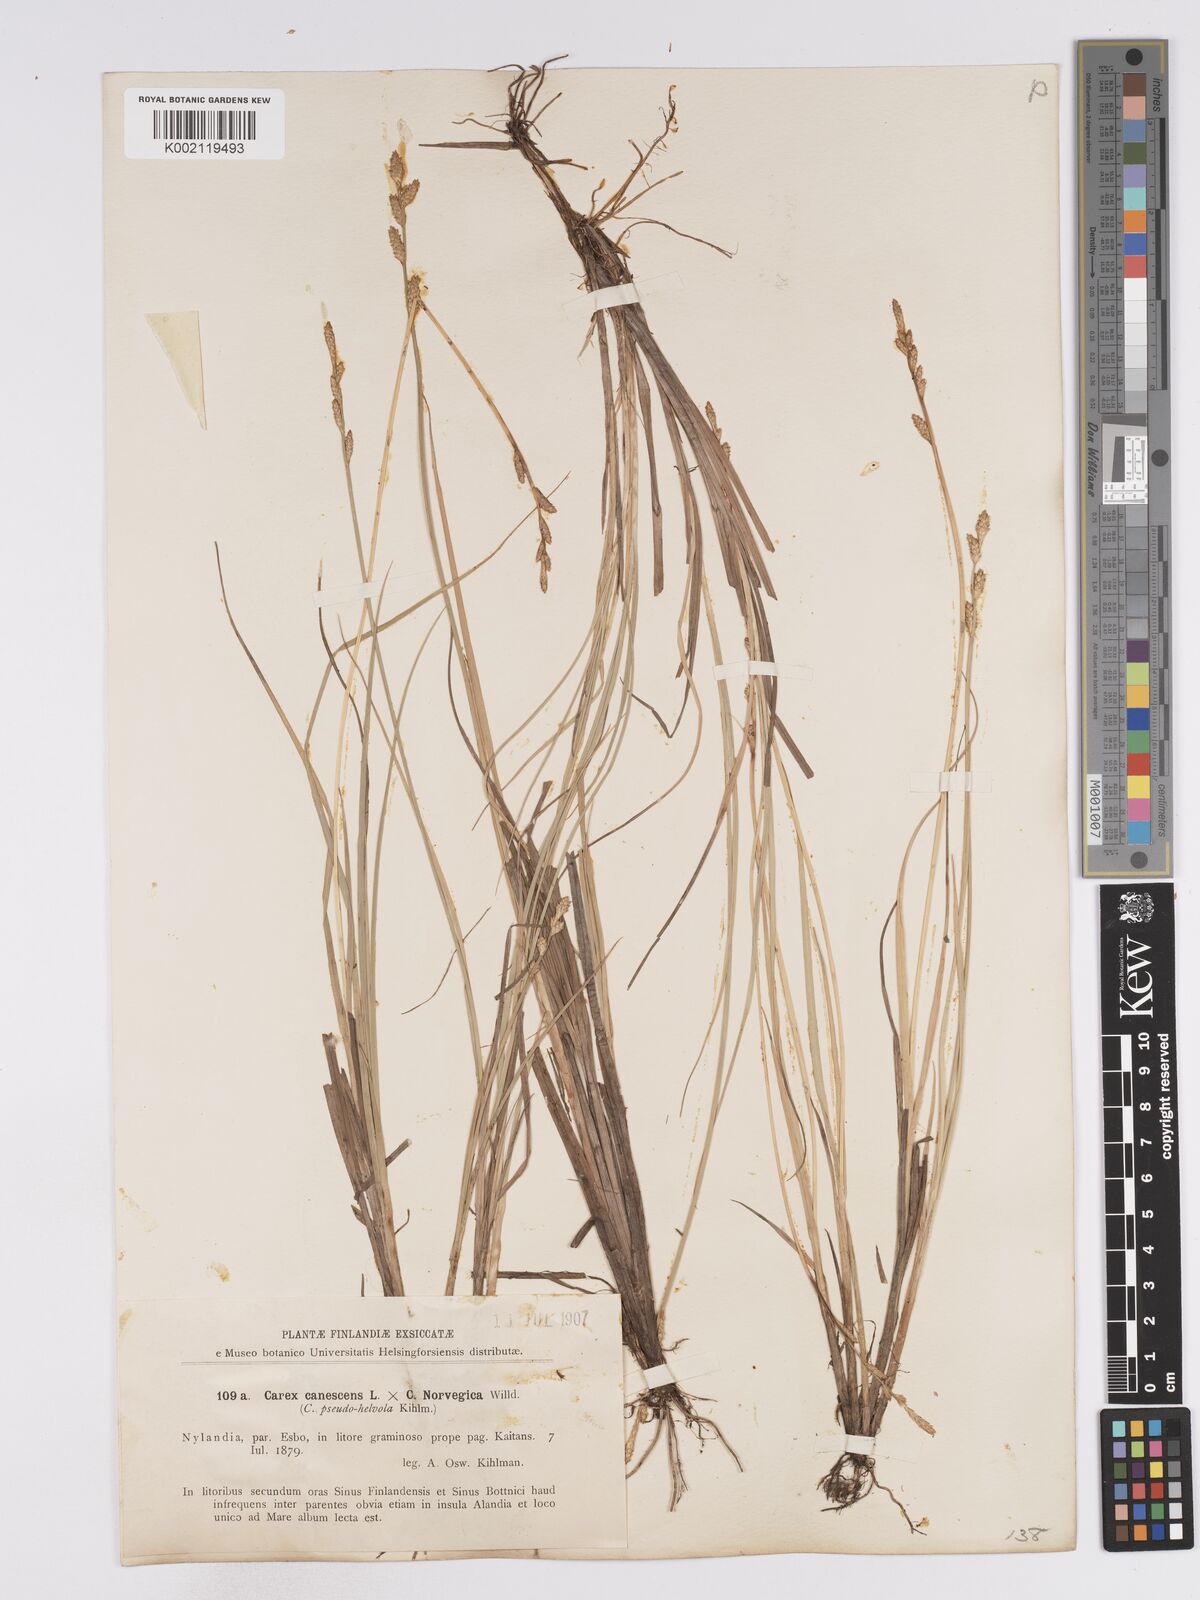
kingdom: Plantae
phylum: Tracheophyta
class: Liliopsida
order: Poales
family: Cyperaceae
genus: Carex
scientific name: Carex mackenziei
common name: Mackenzie's sedge
